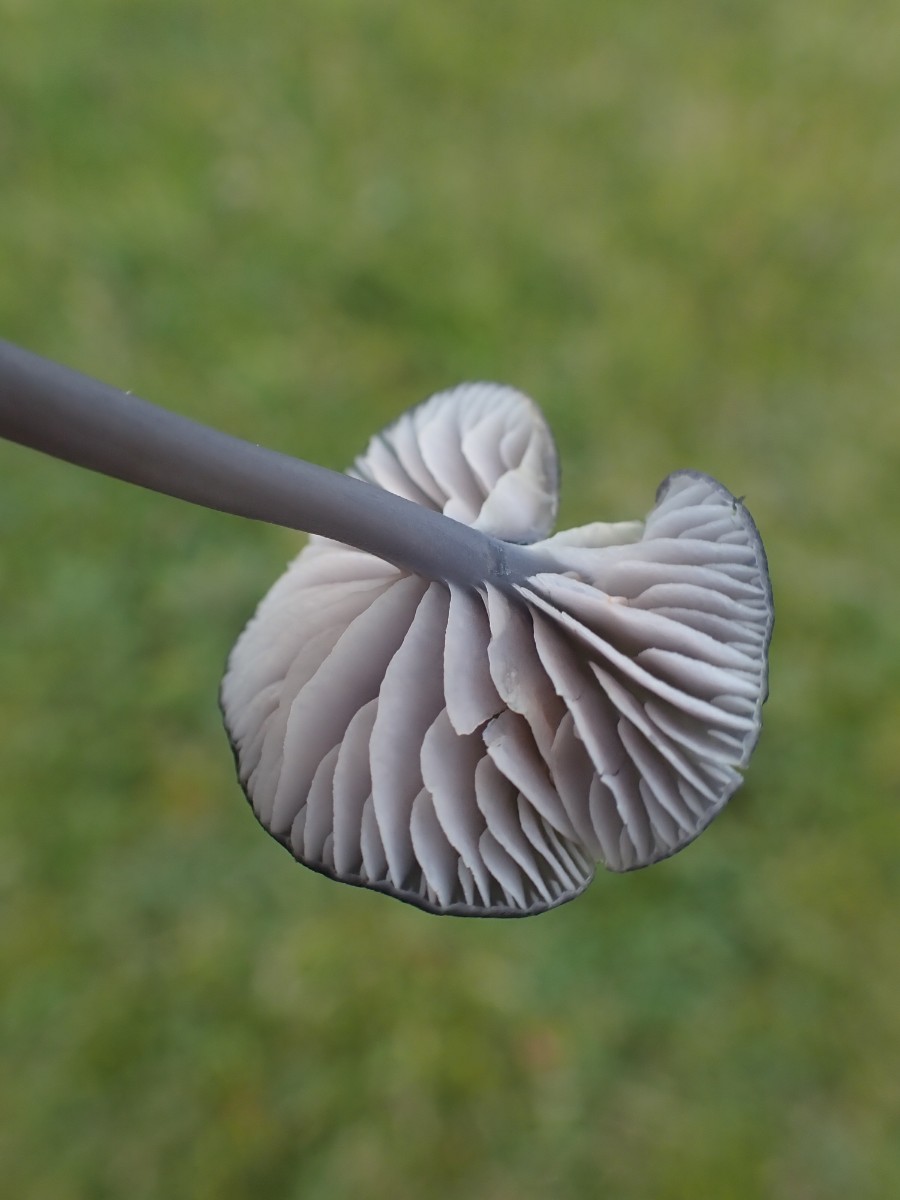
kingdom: Fungi
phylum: Basidiomycota
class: Agaricomycetes
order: Agaricales
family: Entolomataceae
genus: Entoloma
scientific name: Entoloma pseudocruentatum
